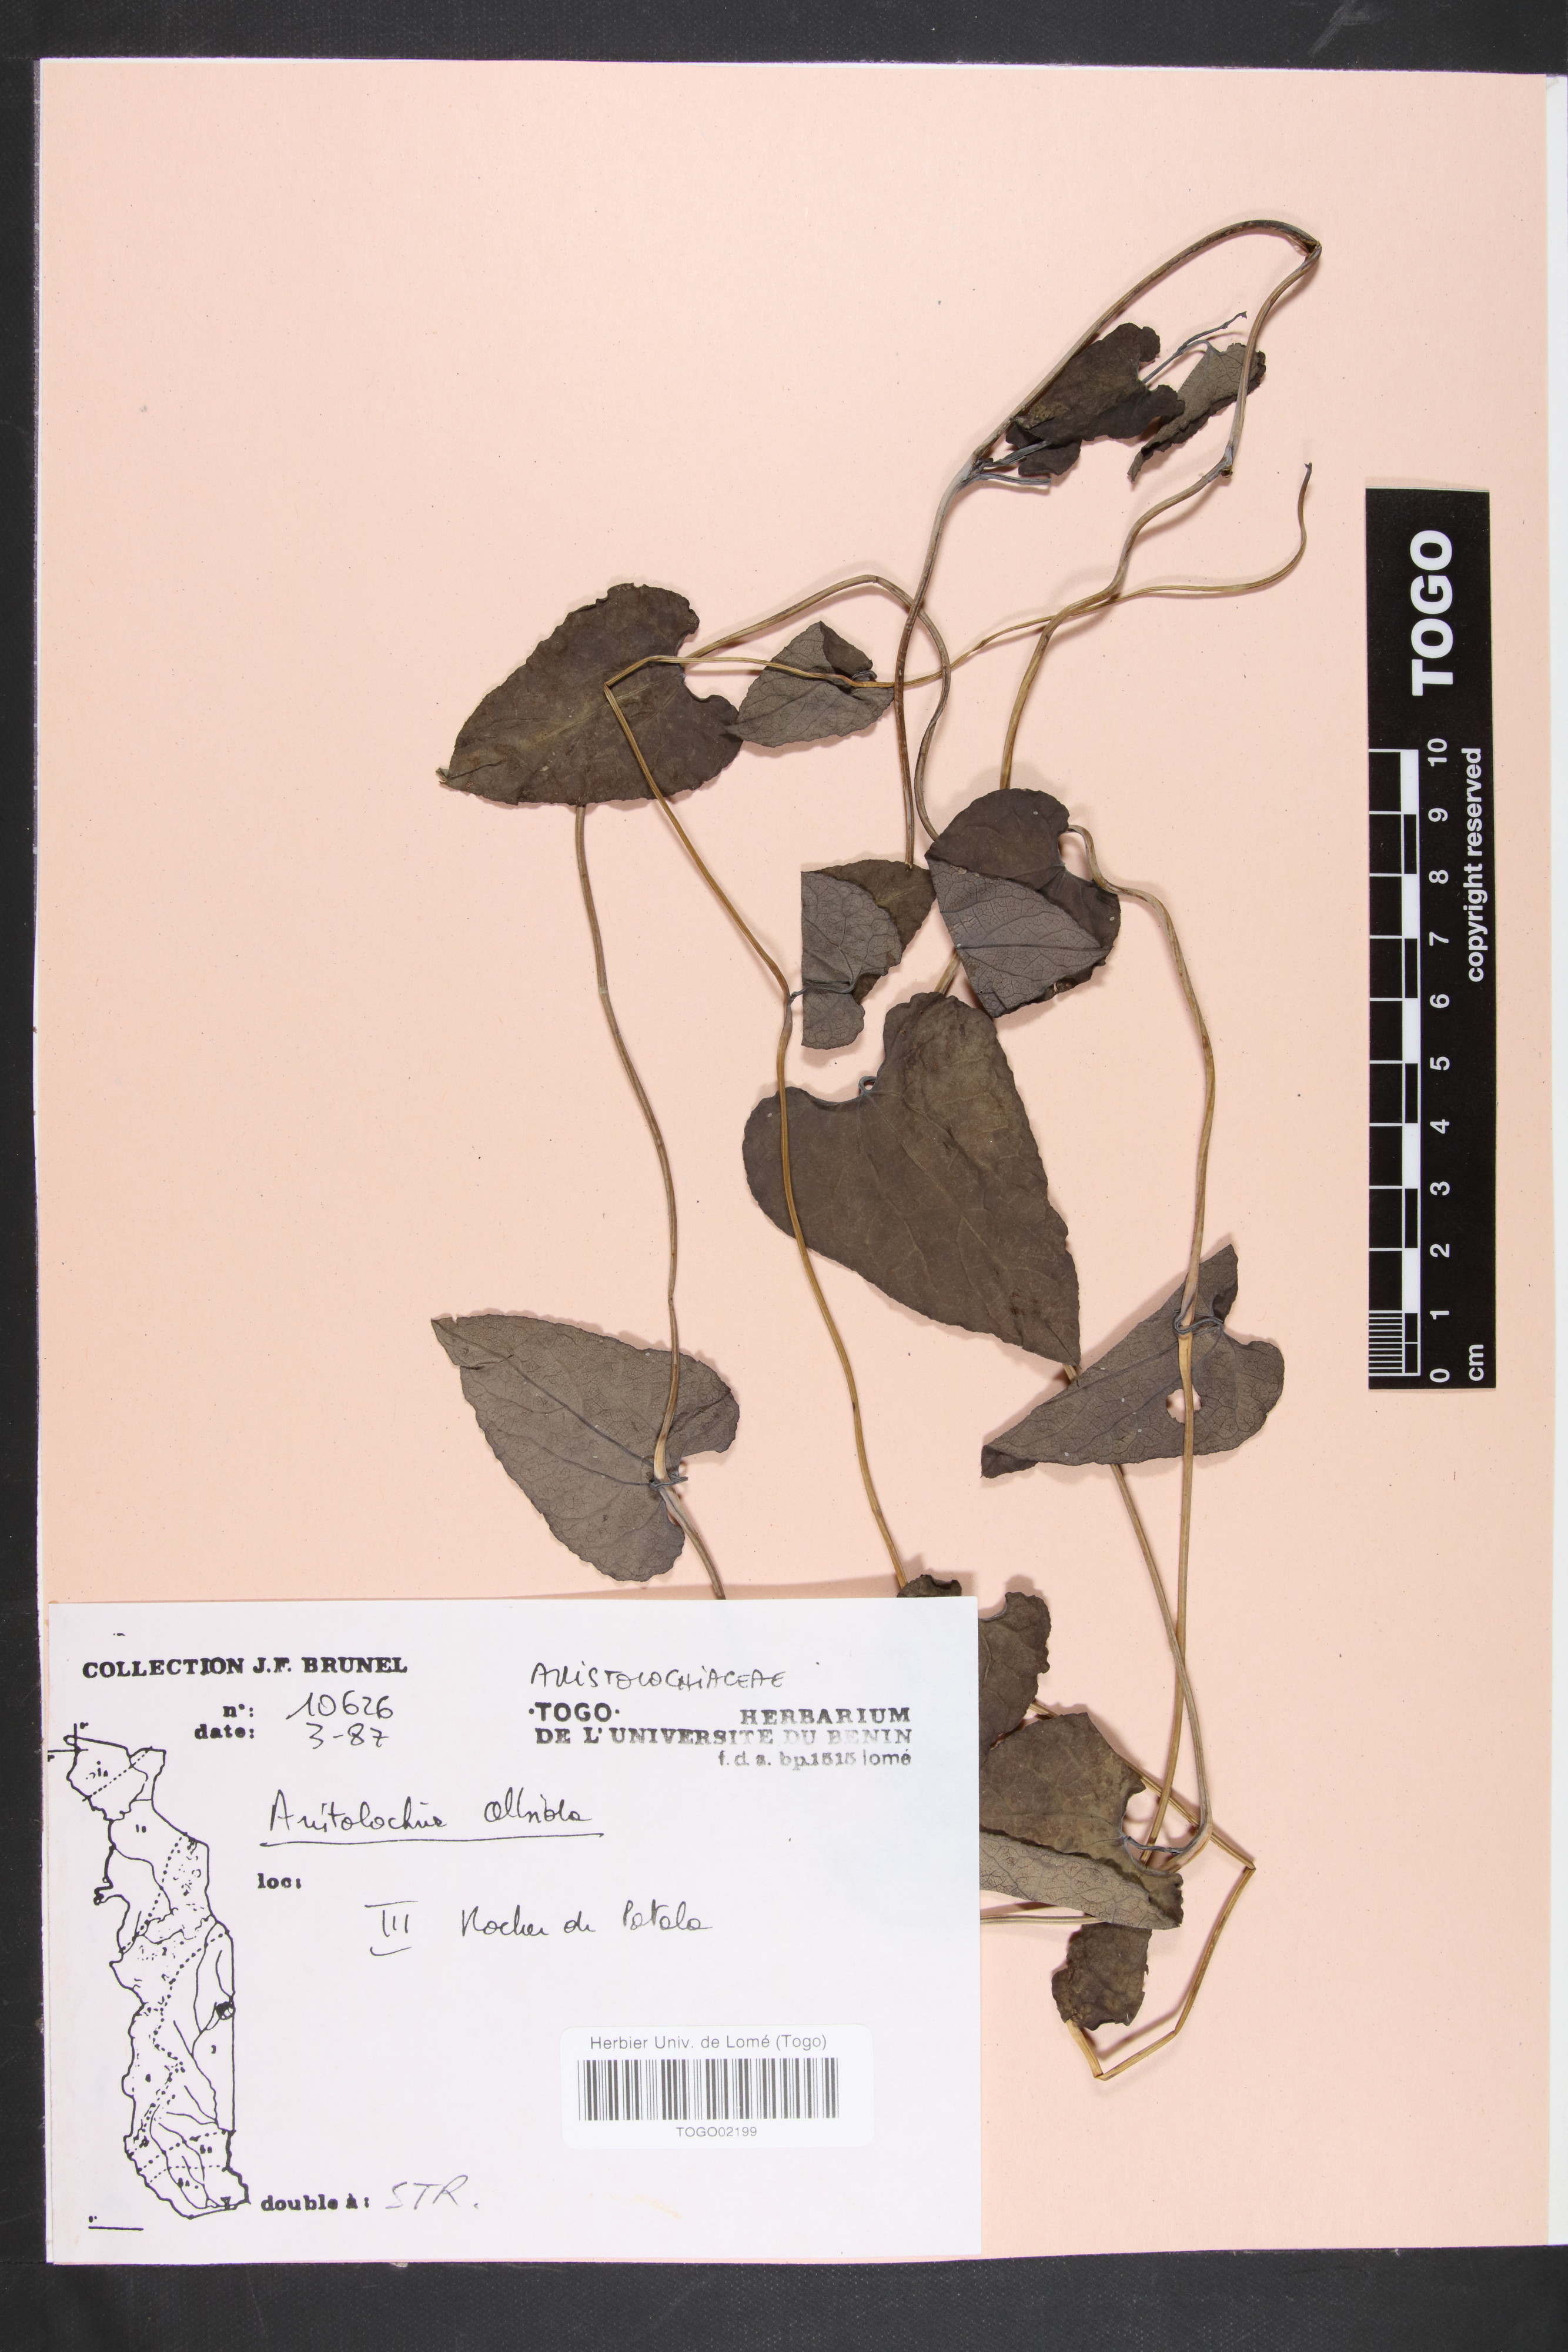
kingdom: Plantae
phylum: Tracheophyta
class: Magnoliopsida
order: Piperales
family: Aristolochiaceae
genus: Aristolochia
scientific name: Aristolochia albida
